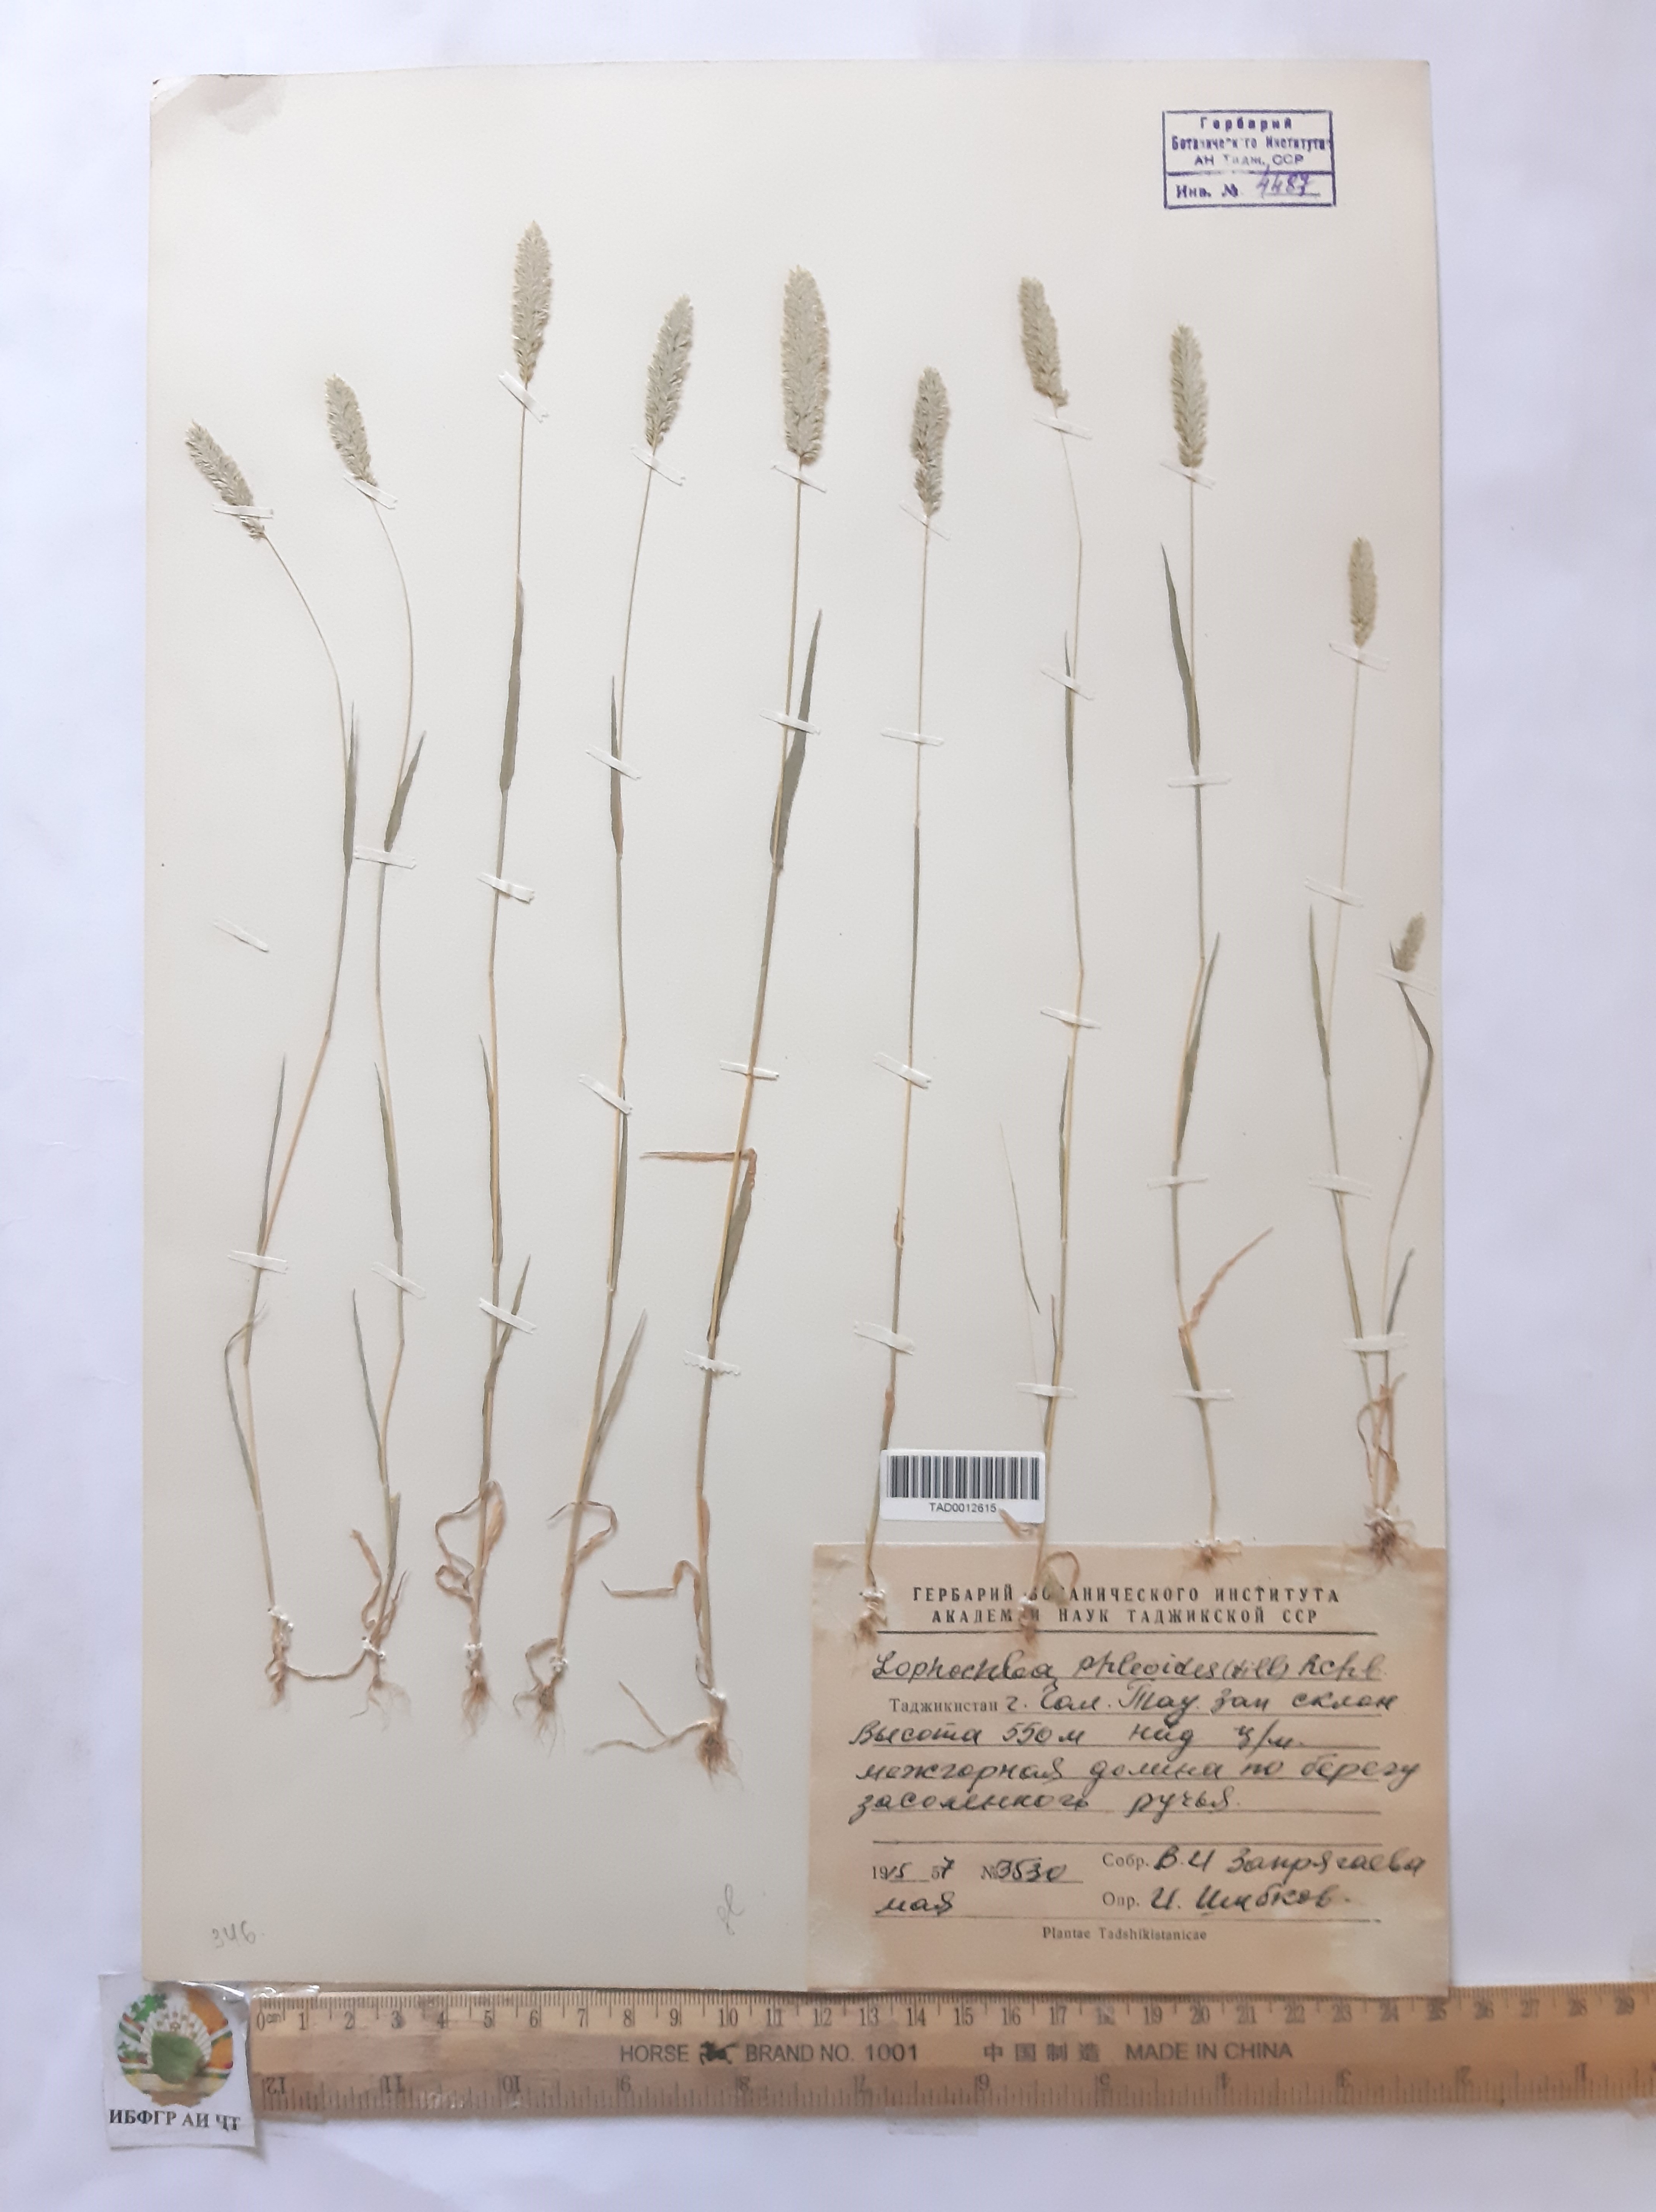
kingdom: Plantae
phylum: Tracheophyta
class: Liliopsida
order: Poales
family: Poaceae
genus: Rostraria
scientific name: Rostraria cristata
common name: Mediterranean hair-grass
